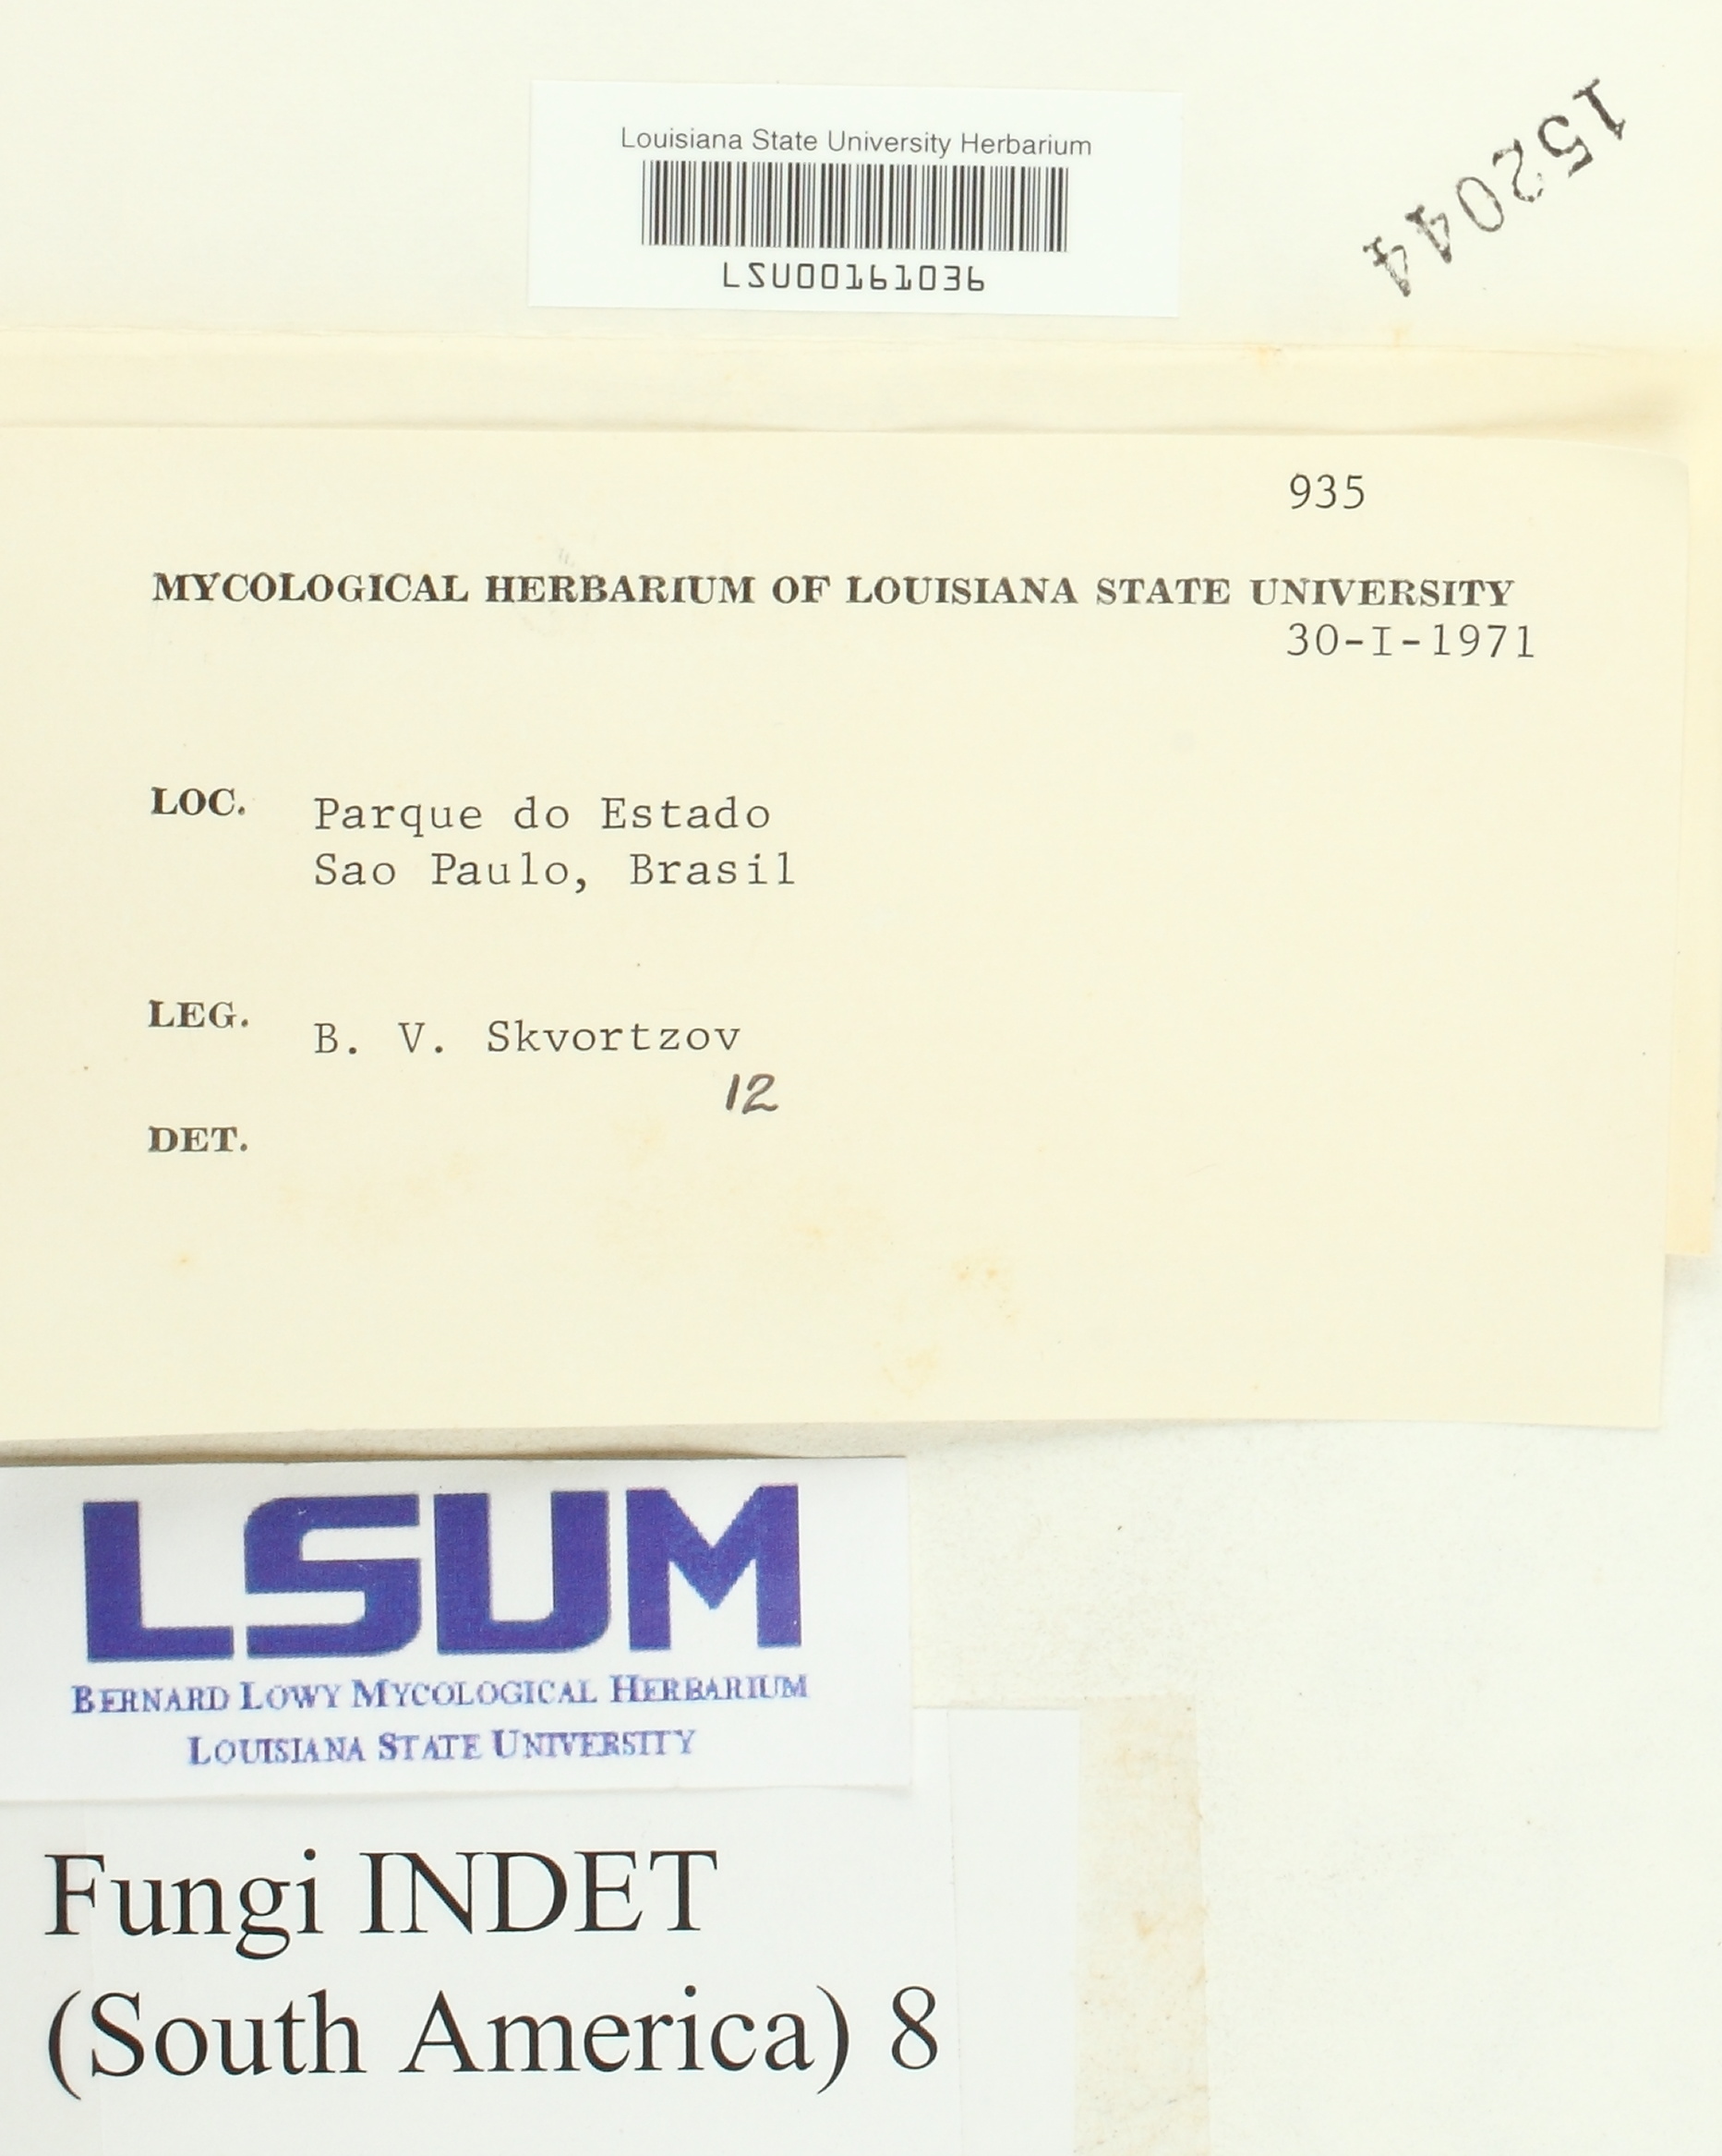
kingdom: Fungi
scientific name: Fungi
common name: Fungi
